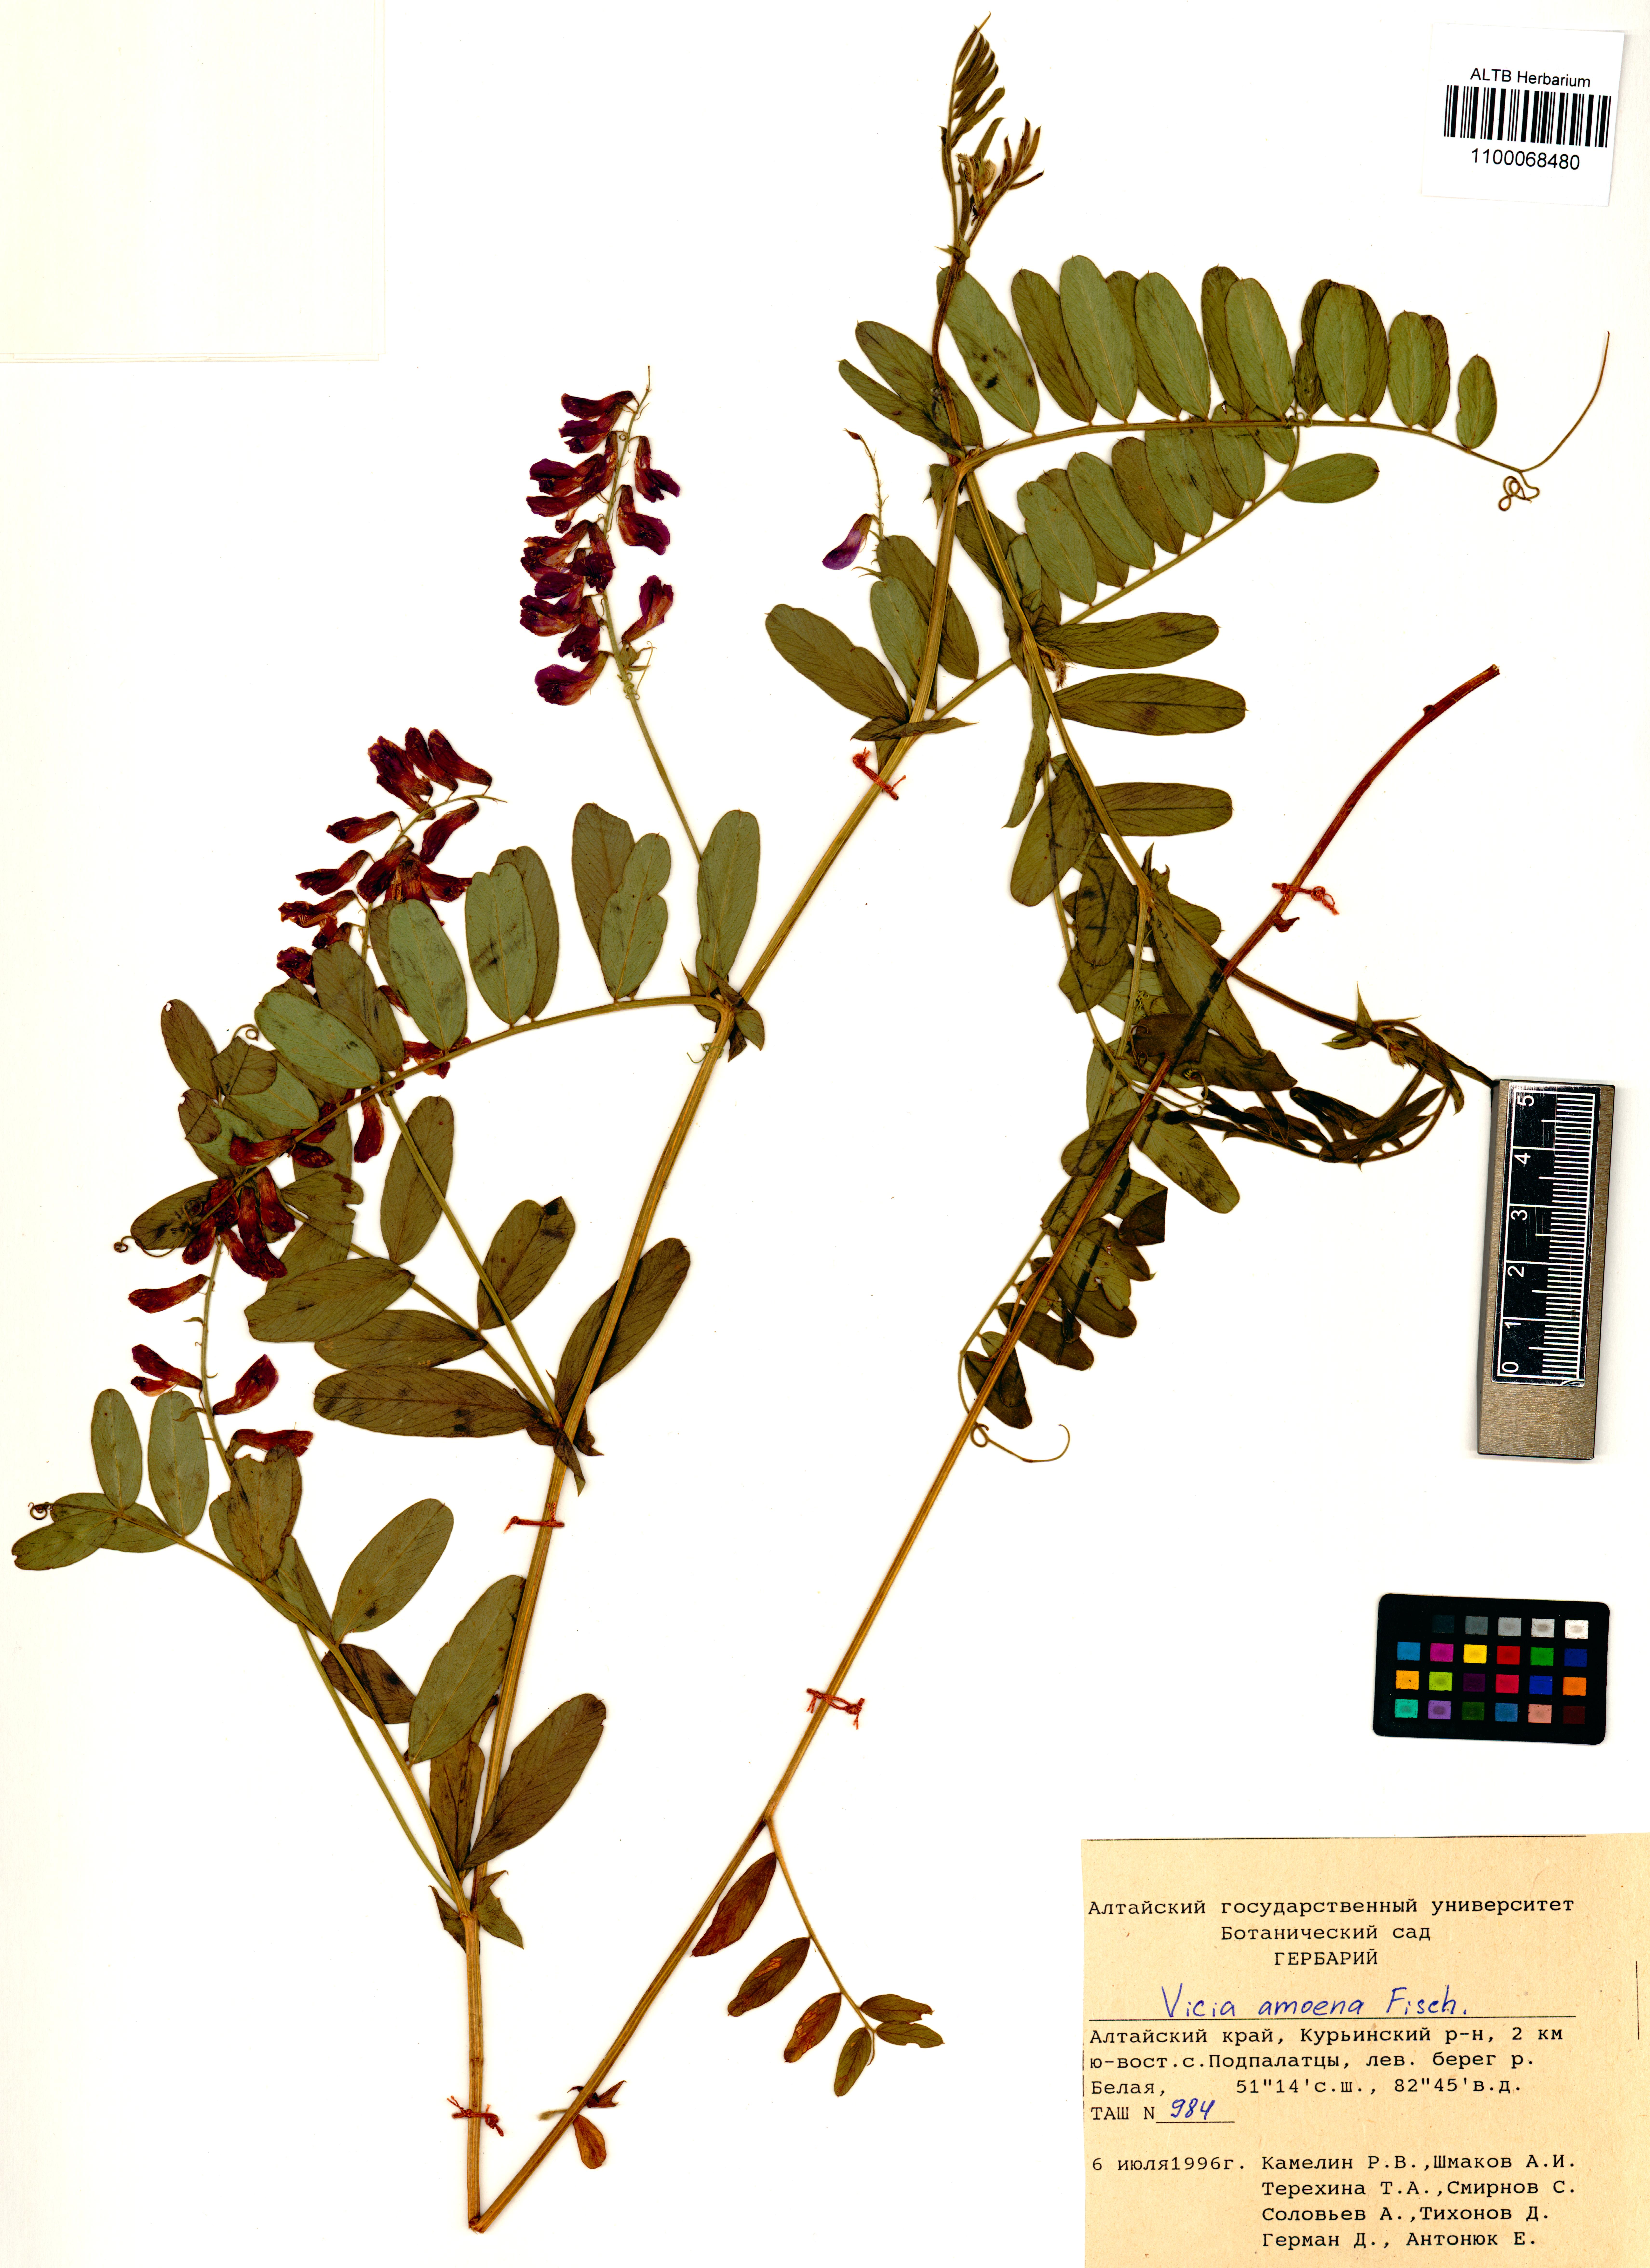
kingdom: Plantae
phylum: Tracheophyta
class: Magnoliopsida
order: Fabales
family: Fabaceae
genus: Vicia
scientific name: Vicia amoena
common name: Cheder ebs
